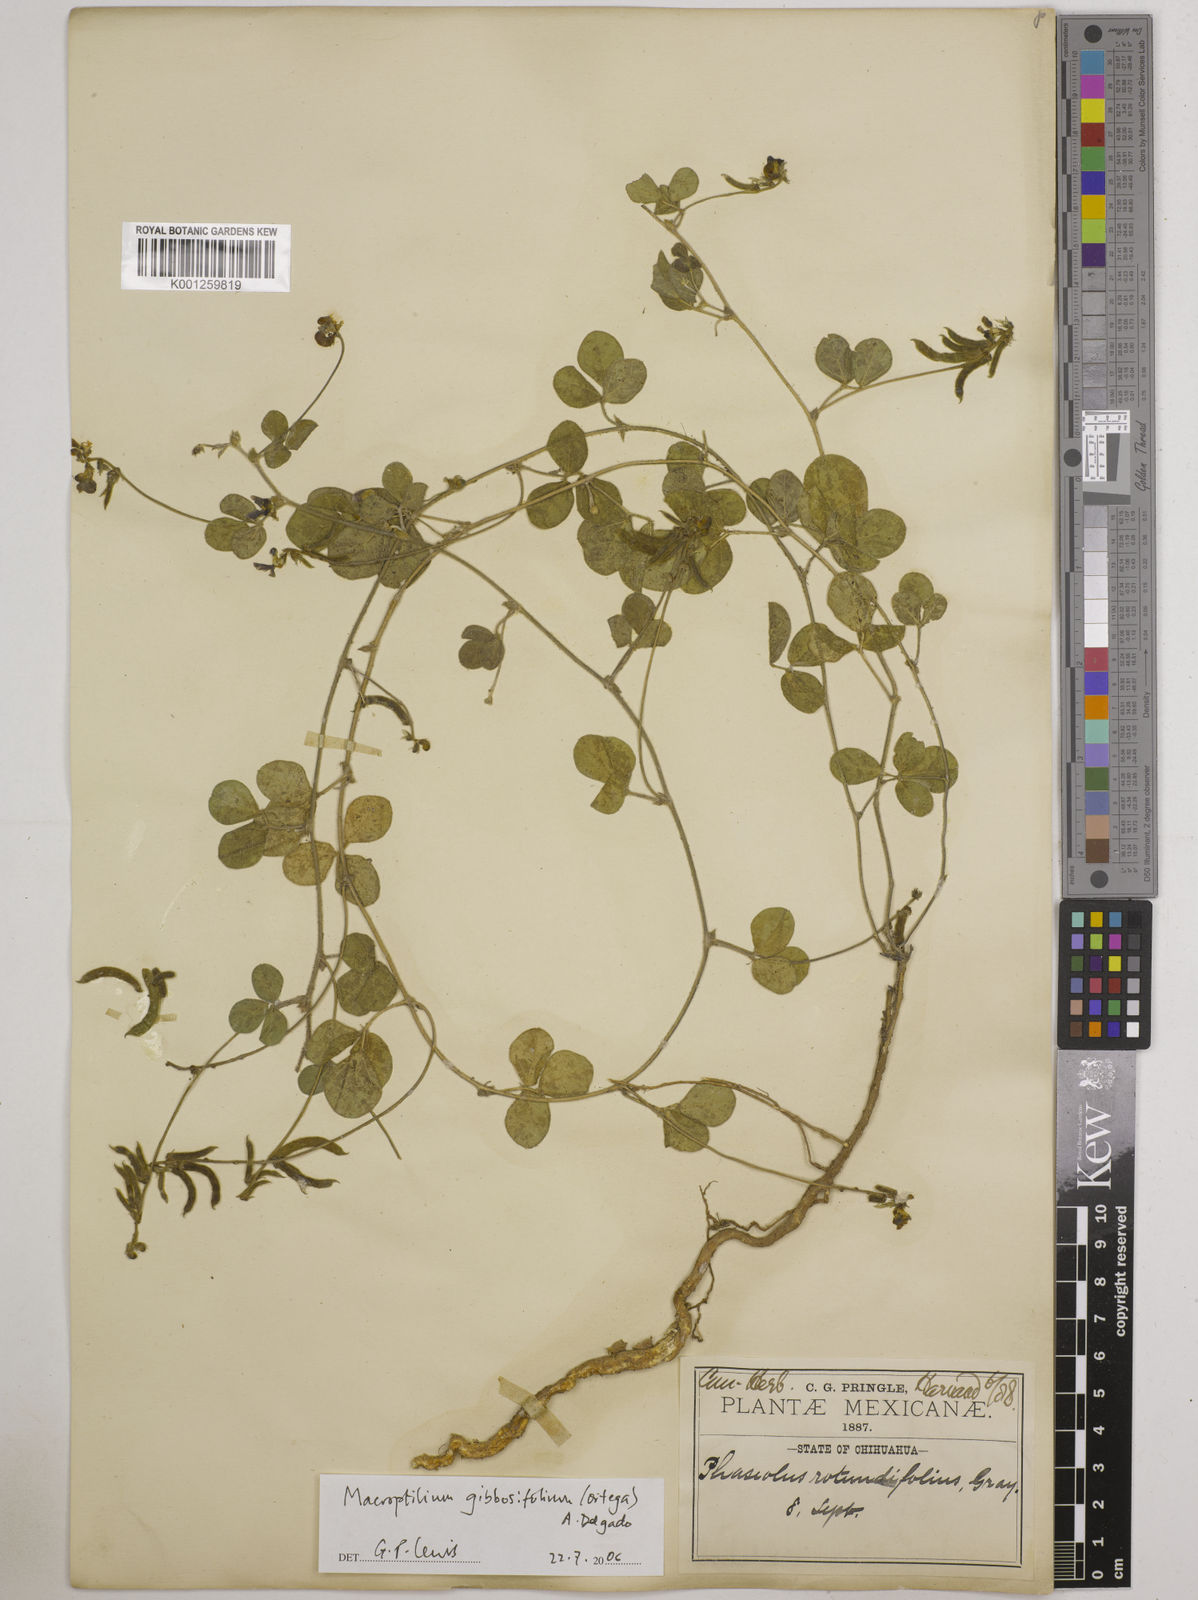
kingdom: Plantae
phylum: Tracheophyta
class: Magnoliopsida
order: Fabales
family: Fabaceae
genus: Macroptilium
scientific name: Macroptilium gibbosifolium
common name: Variableleaf bushbean
